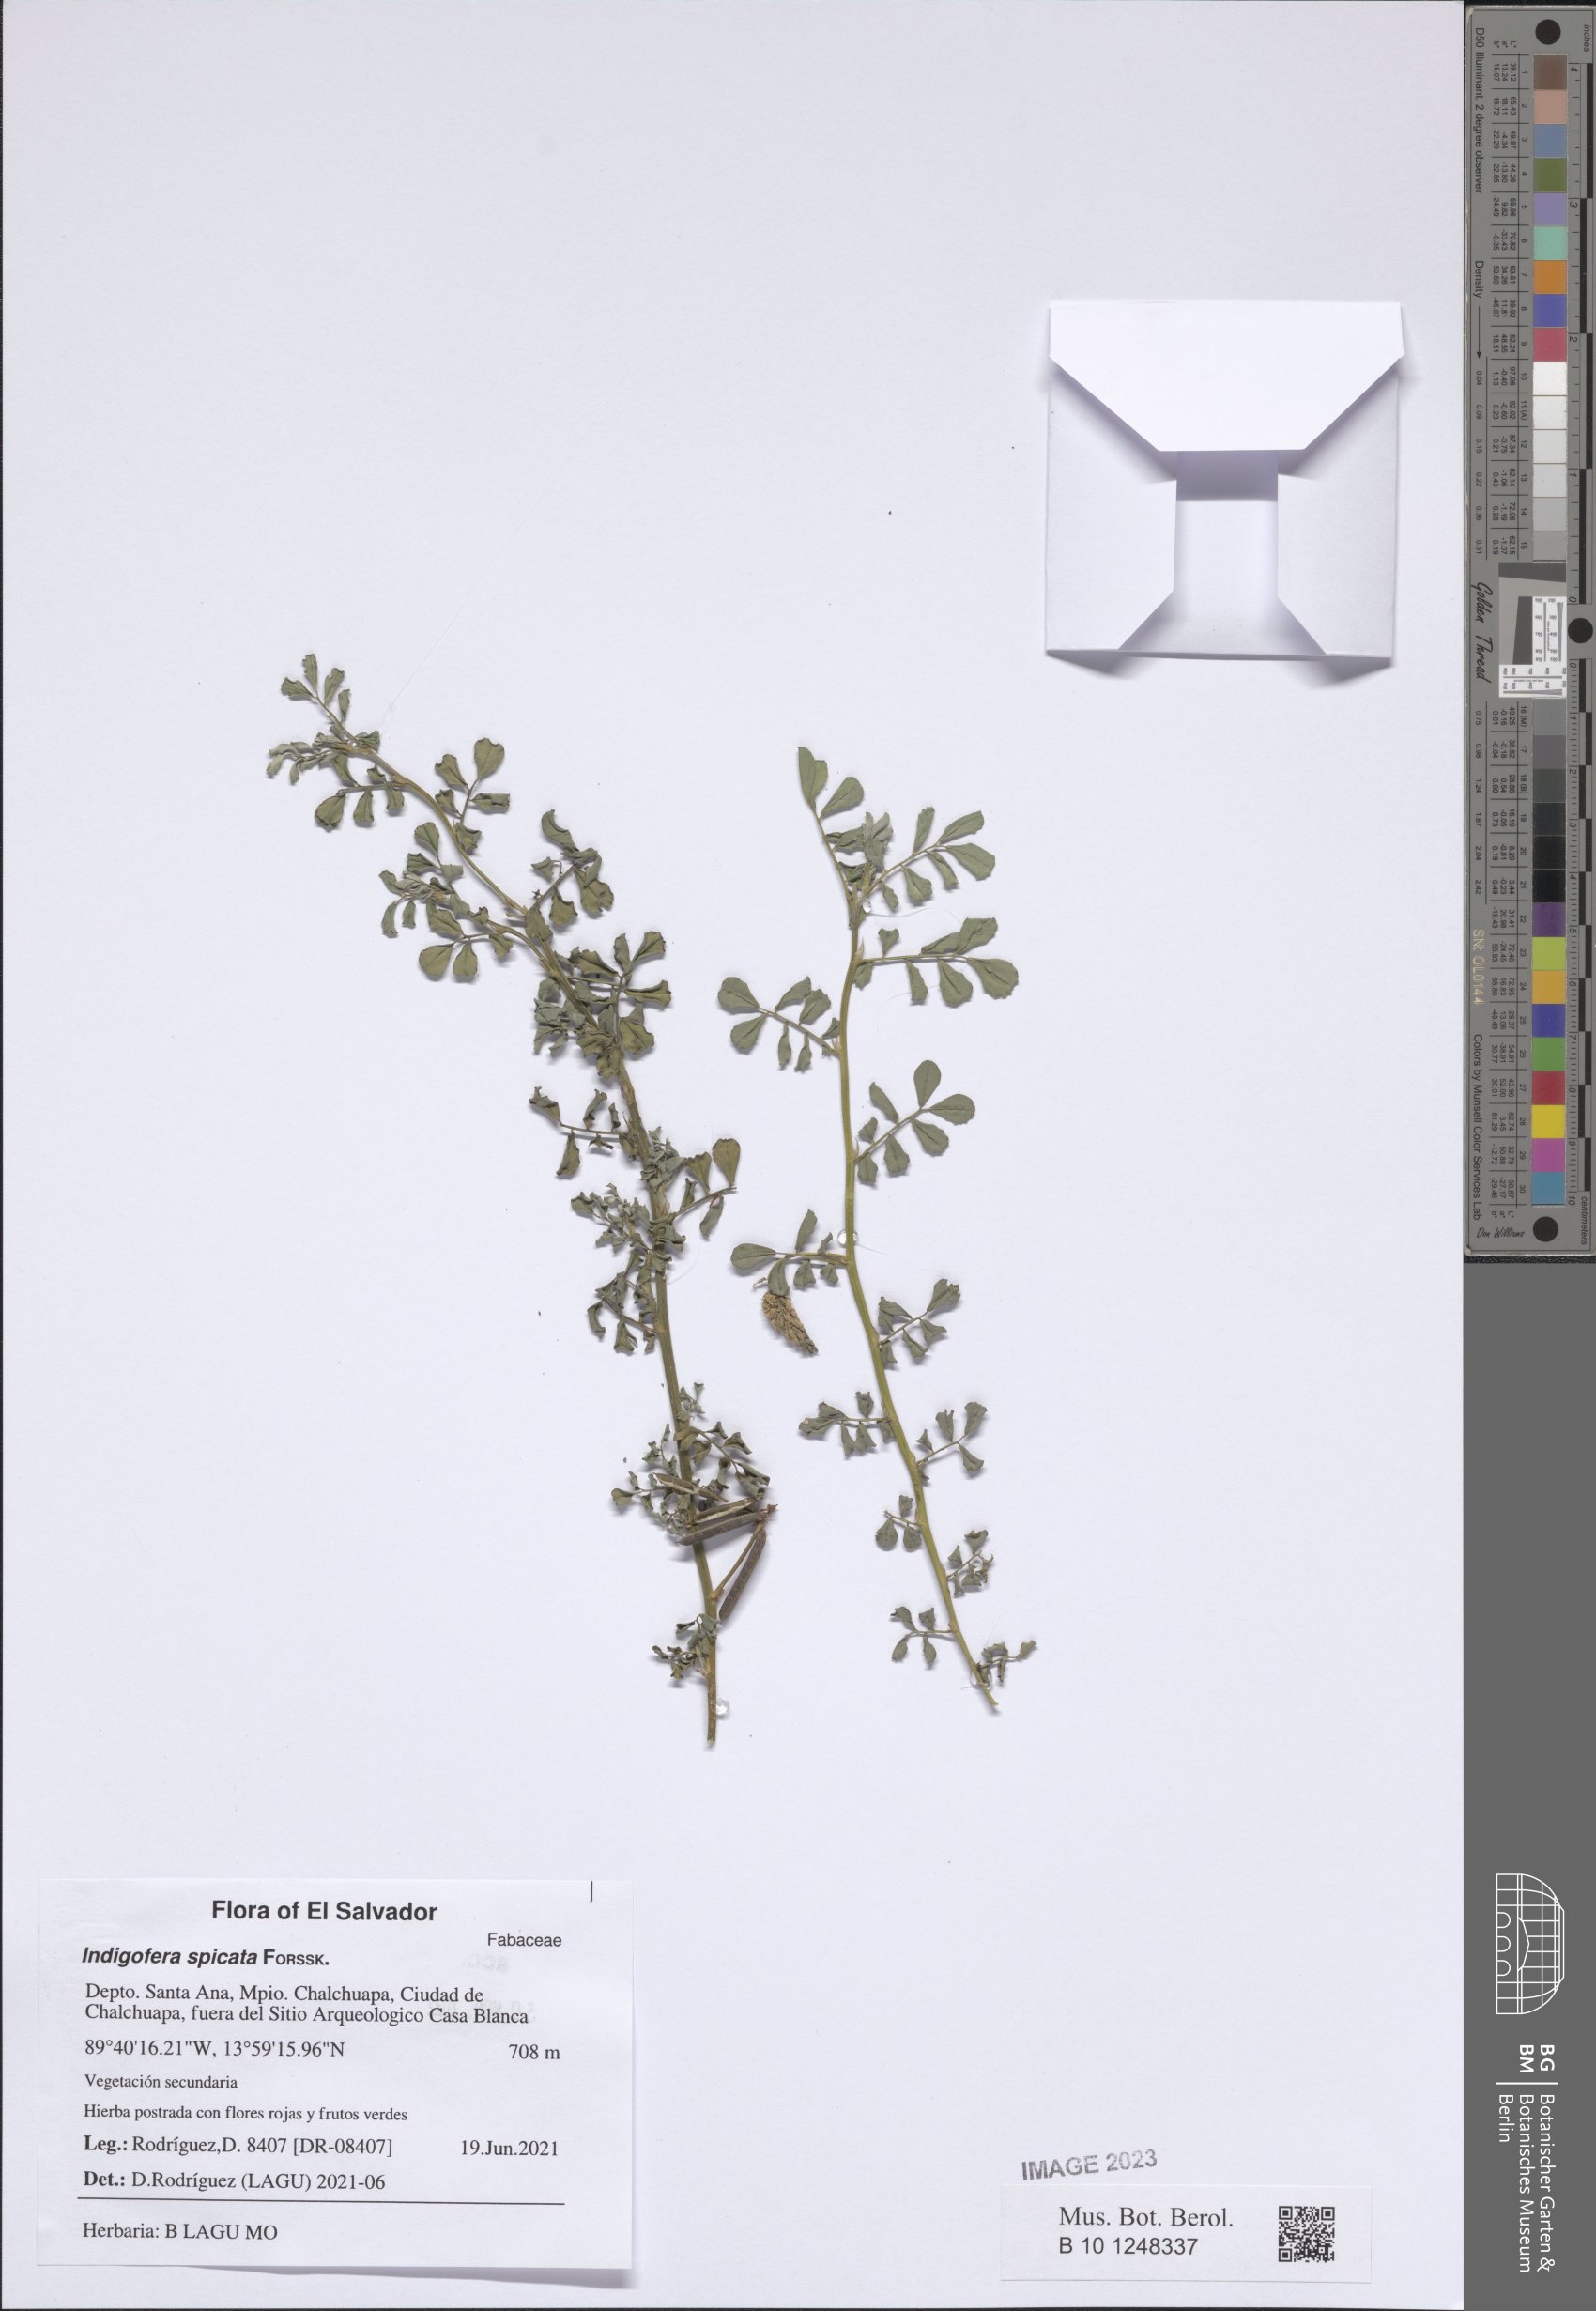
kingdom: Plantae
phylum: Tracheophyta
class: Magnoliopsida
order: Fabales
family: Fabaceae
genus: Indigofera
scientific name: Indigofera spicata
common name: Creeping indigo
